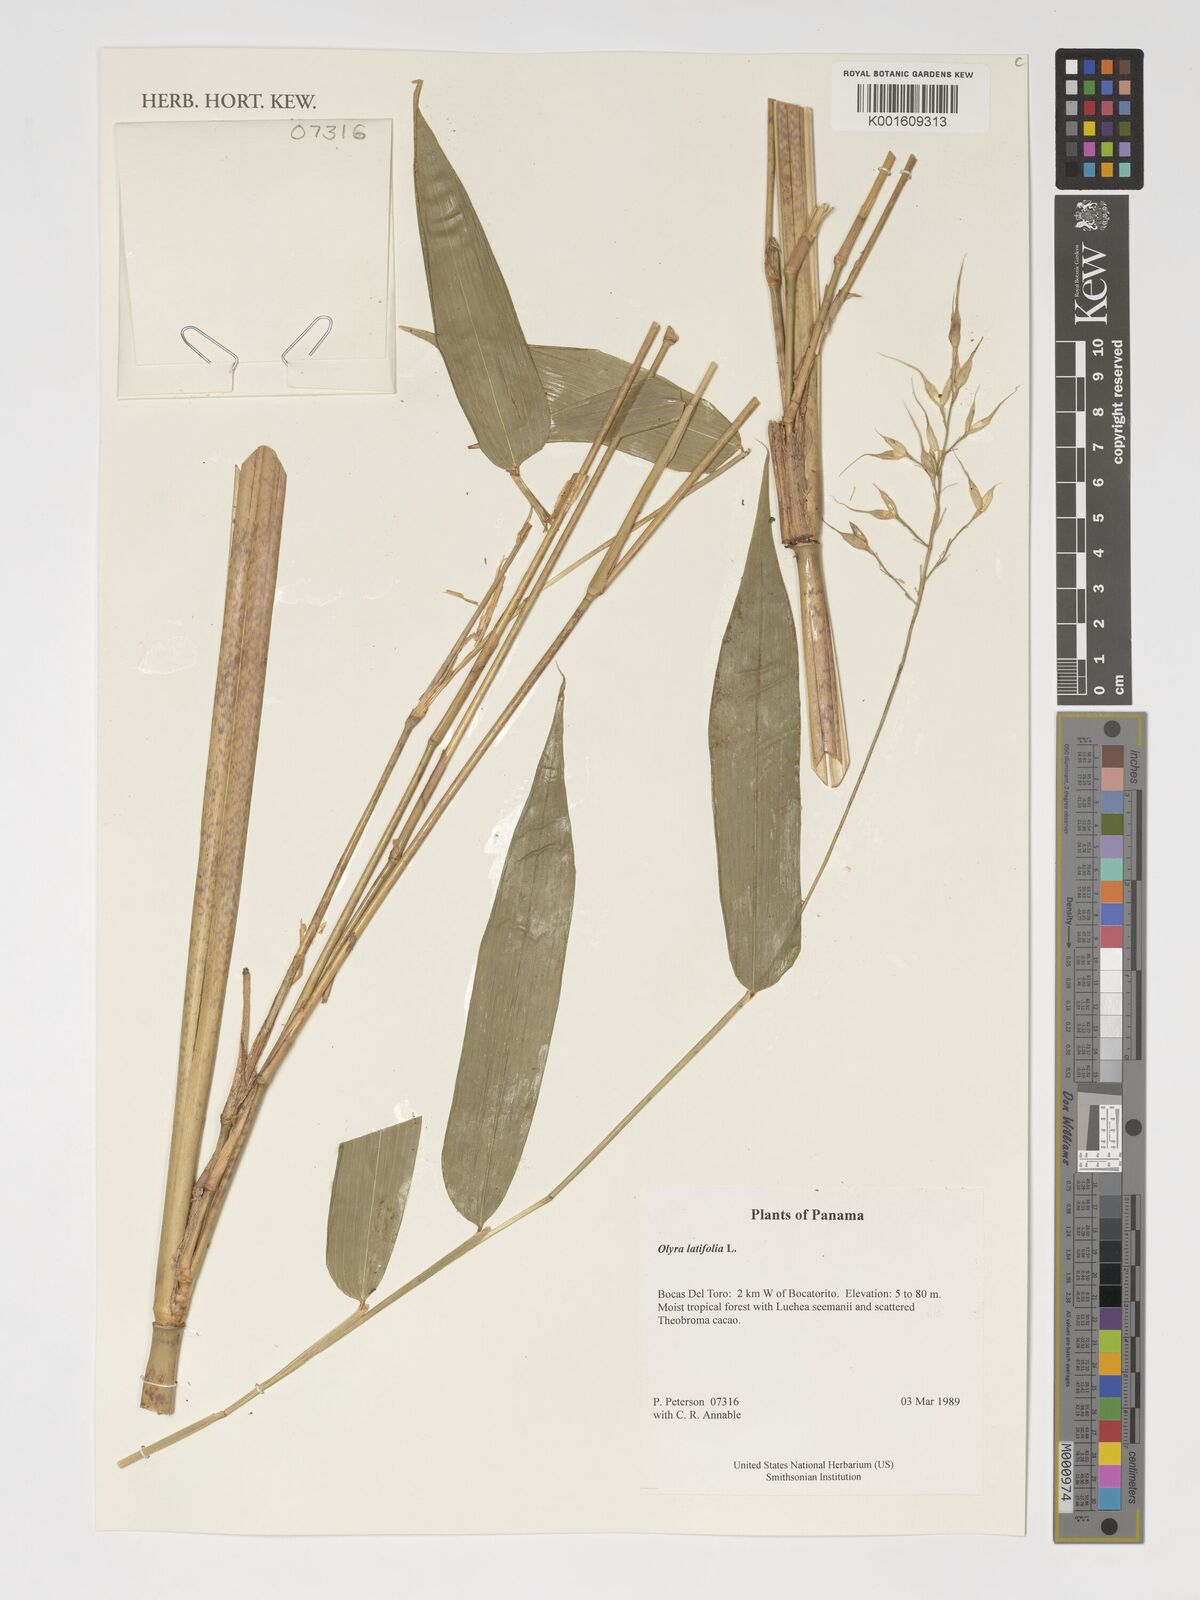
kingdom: Plantae
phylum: Tracheophyta
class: Liliopsida
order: Poales
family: Poaceae
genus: Olyra
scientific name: Olyra latifolia
